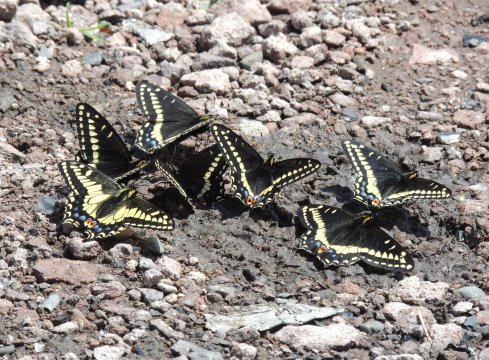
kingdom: Animalia
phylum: Arthropoda
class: Insecta
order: Lepidoptera
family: Papilionidae
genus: Papilio
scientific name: Papilio indra
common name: Indra Swallowtail
